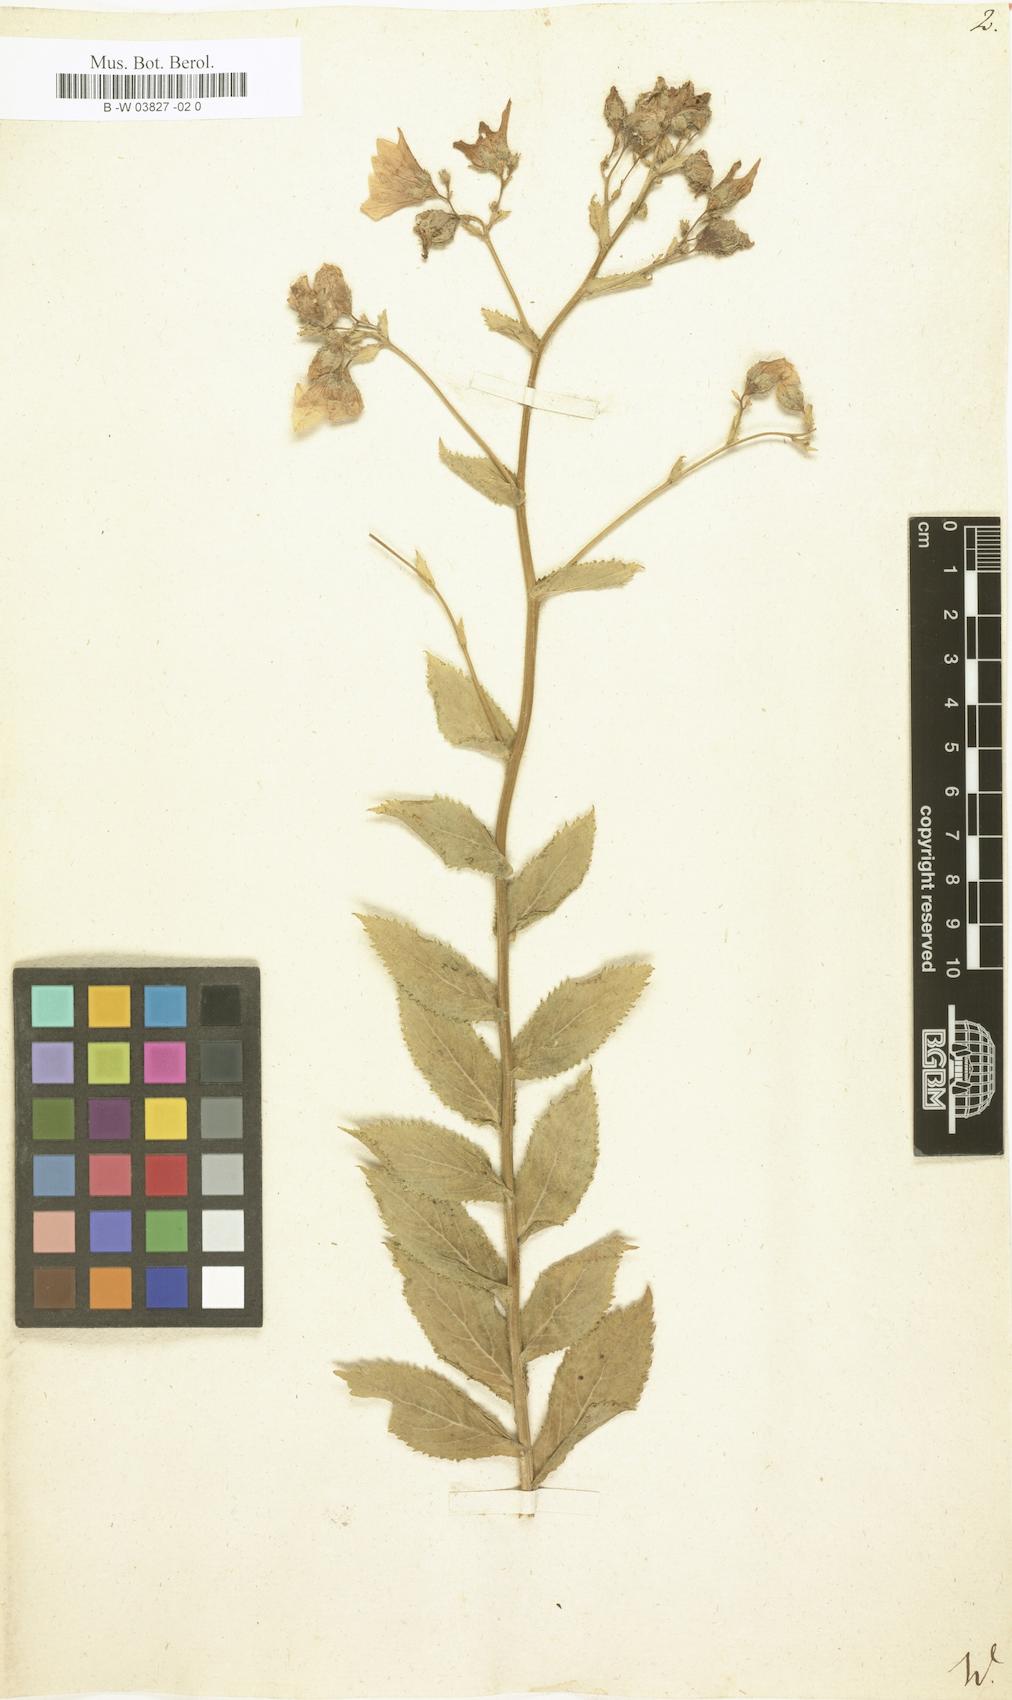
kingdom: Plantae
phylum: Tracheophyta
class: Magnoliopsida
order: Asterales
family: Campanulaceae
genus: Campanula
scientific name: Campanula lactiflora
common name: Milky bellflower
